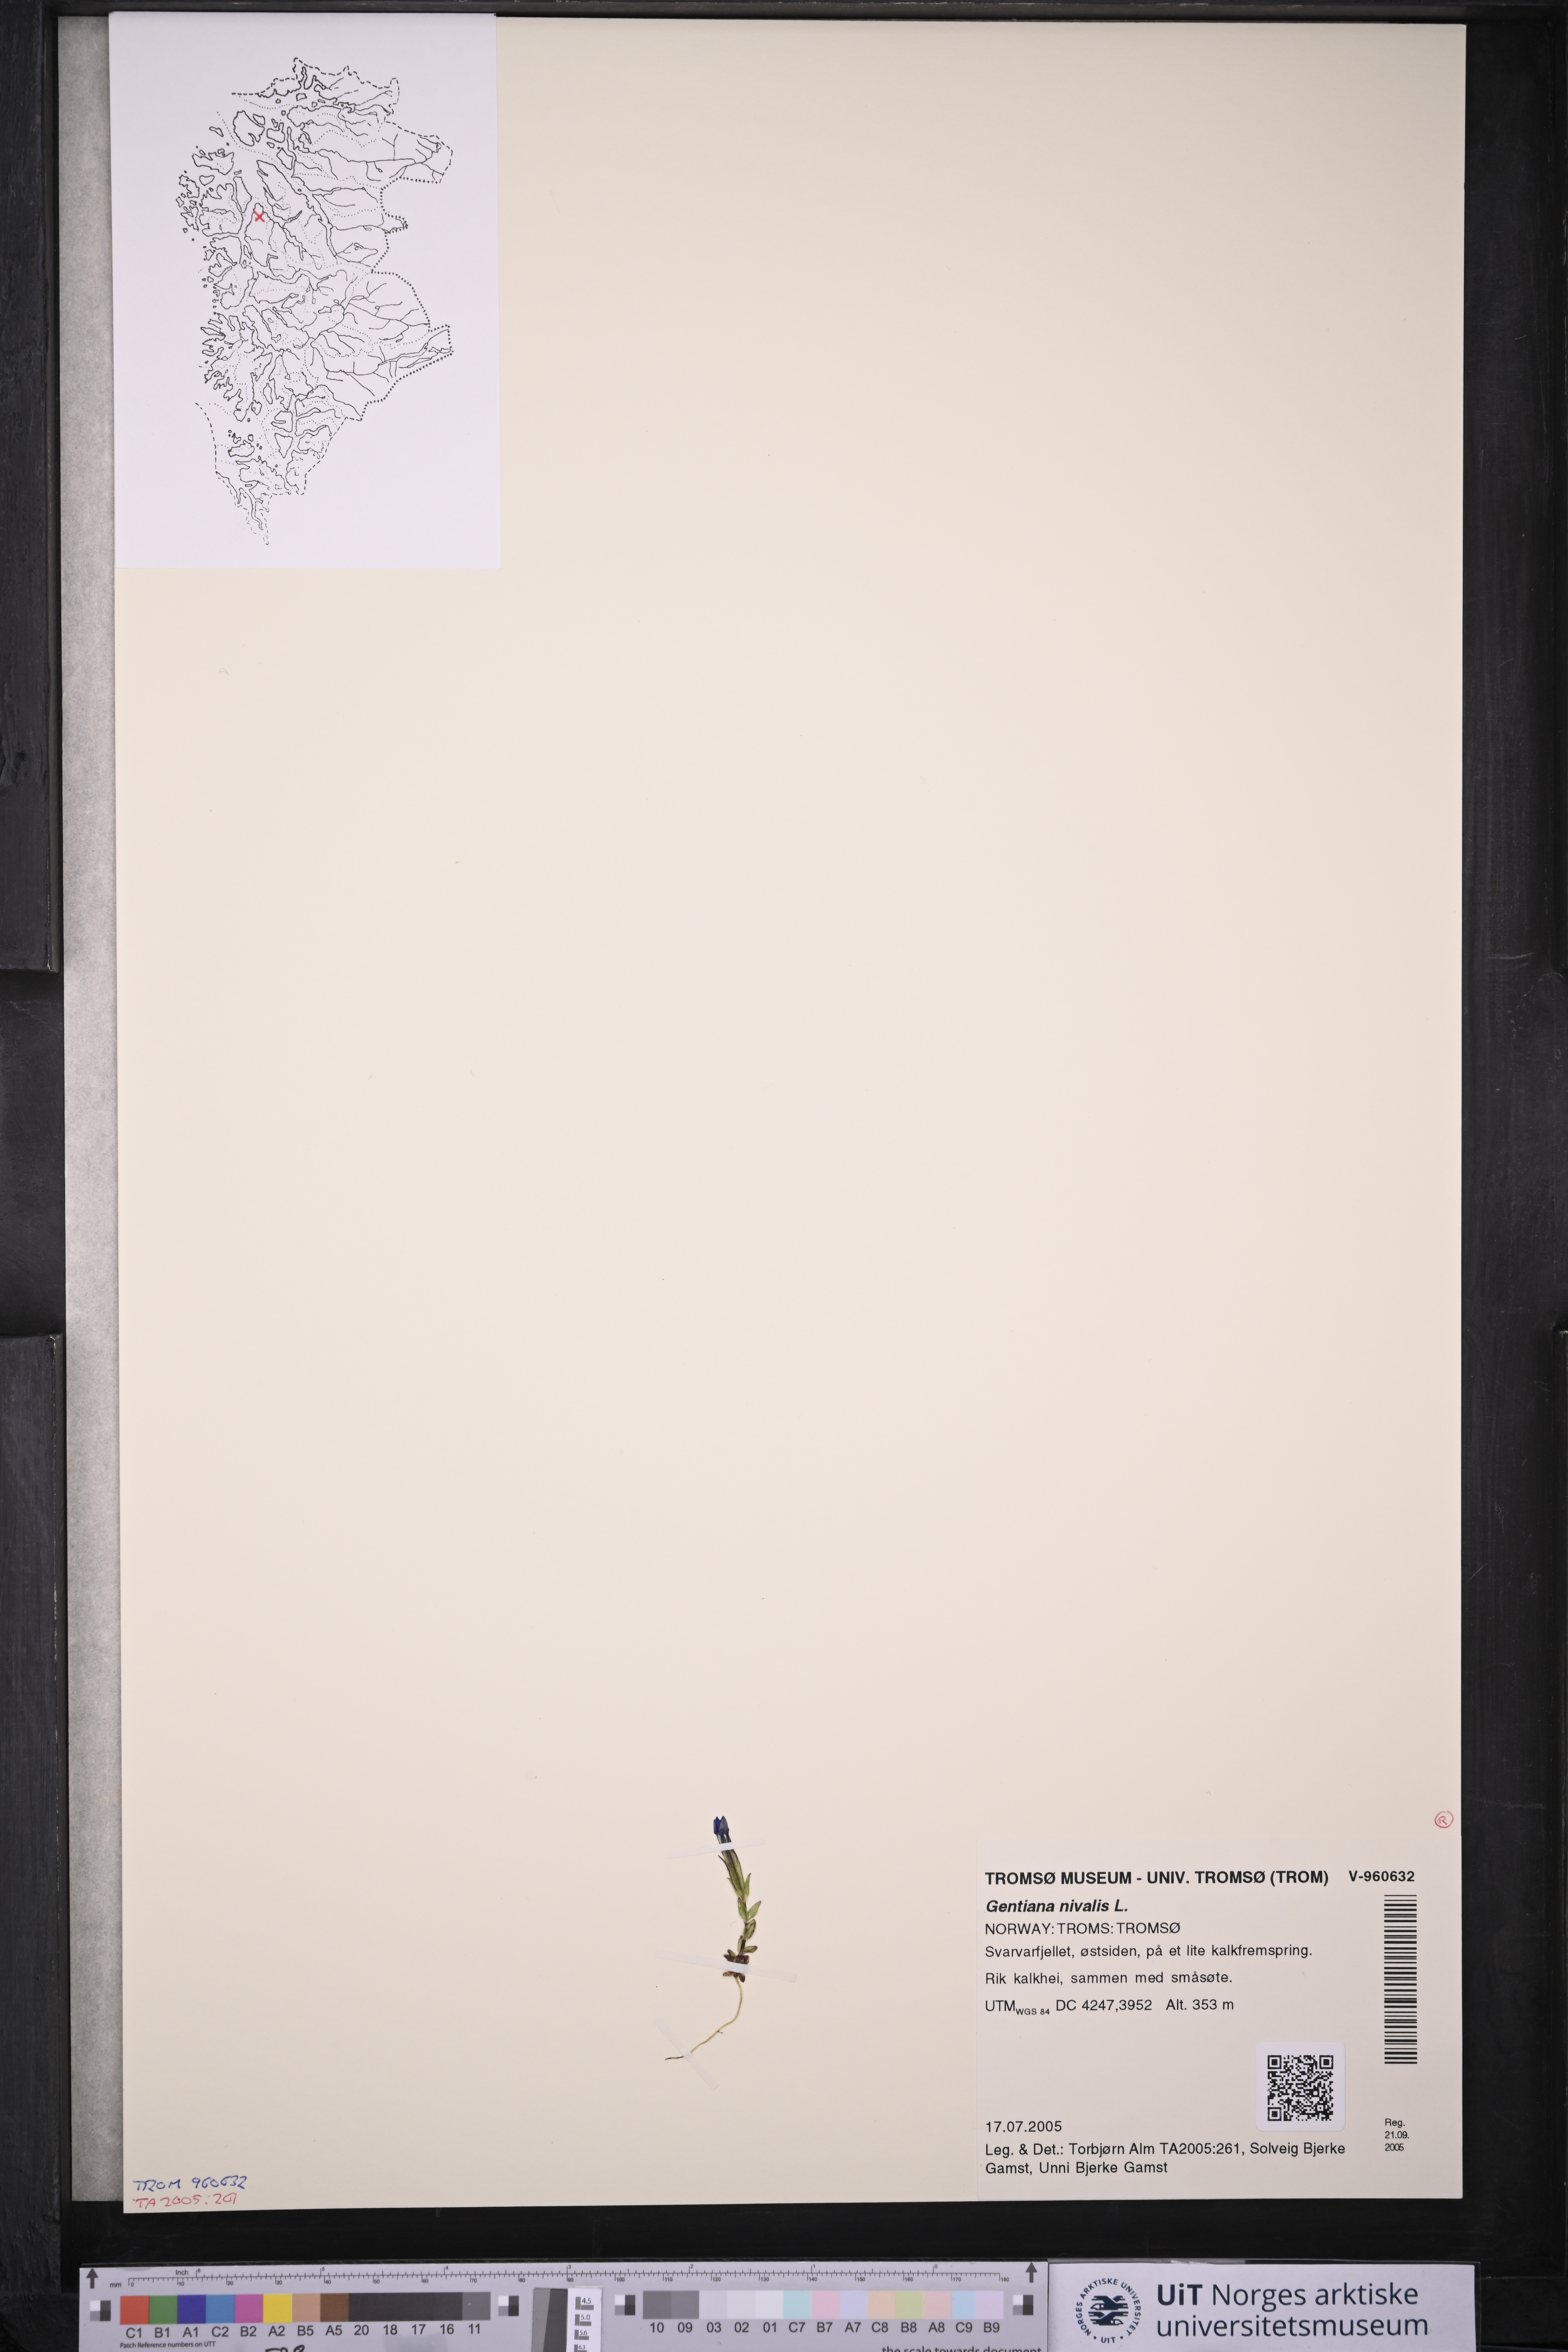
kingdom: Plantae
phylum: Tracheophyta
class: Magnoliopsida
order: Gentianales
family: Gentianaceae
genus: Gentiana
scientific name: Gentiana nivalis
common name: Alpine gentian
